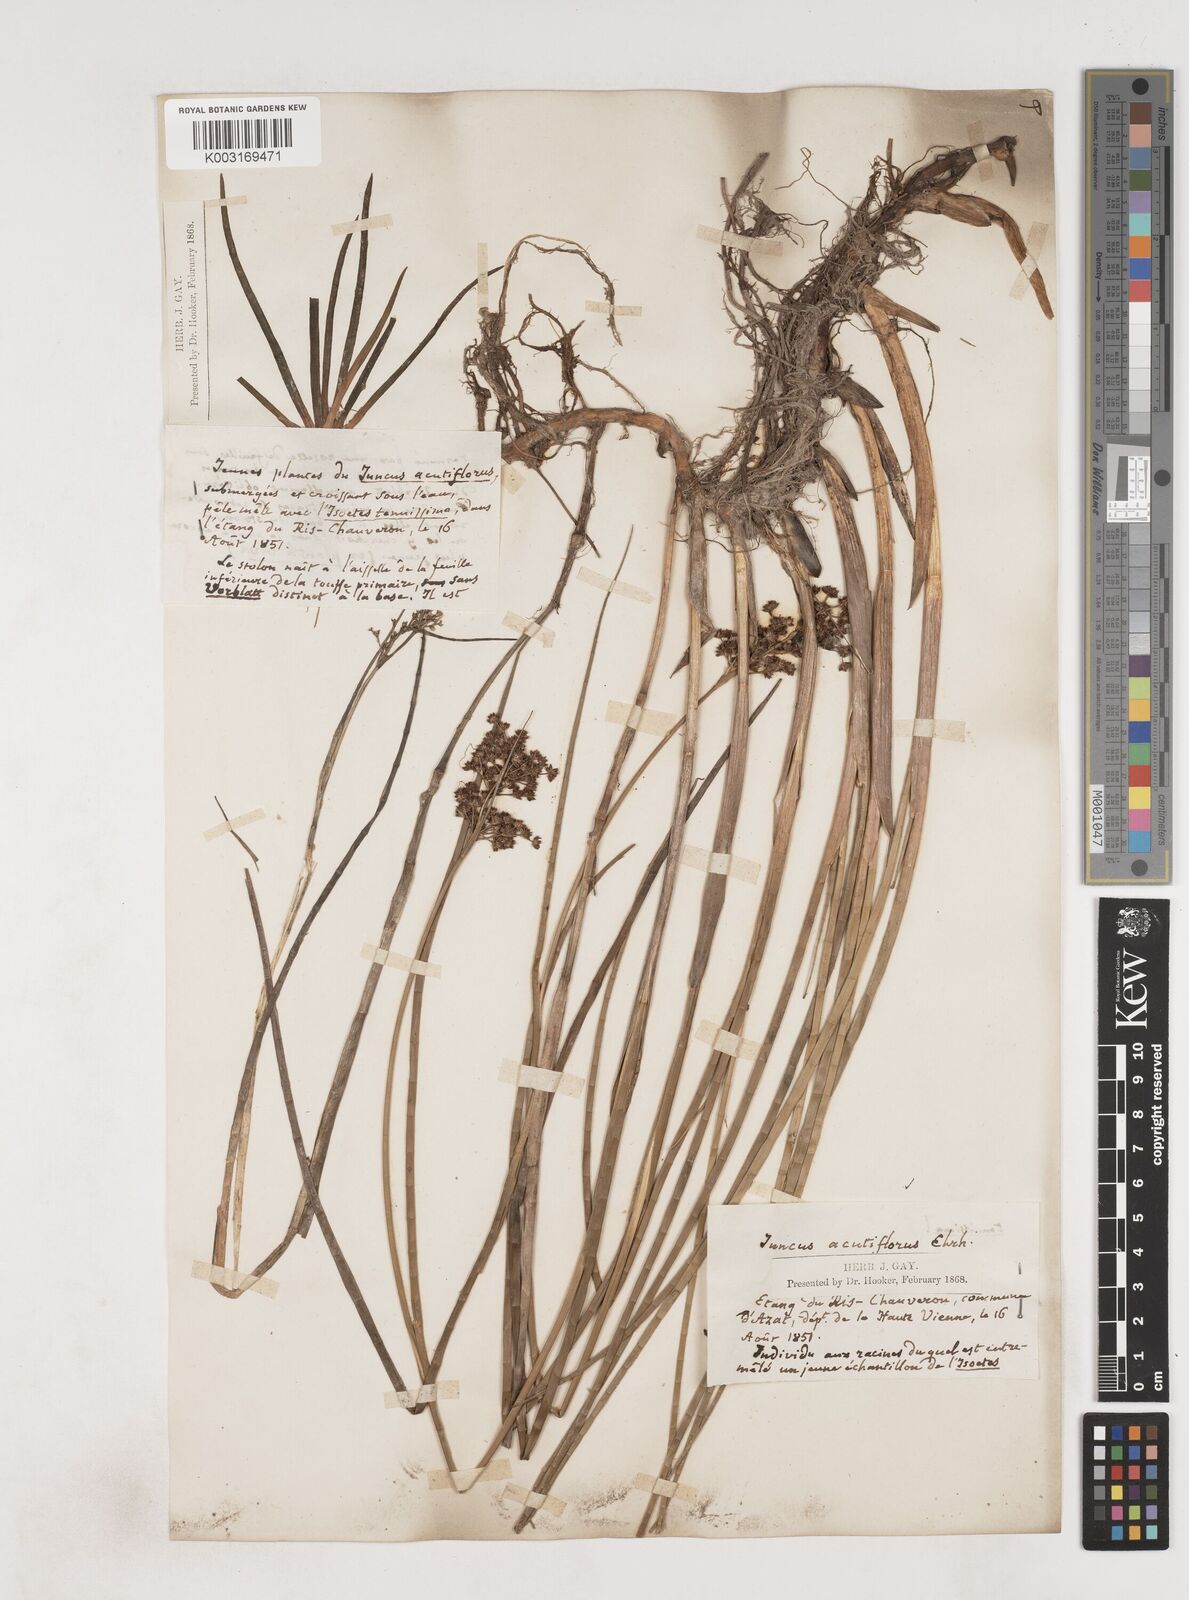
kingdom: Plantae
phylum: Tracheophyta
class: Liliopsida
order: Poales
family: Juncaceae
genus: Juncus
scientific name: Juncus acutiflorus
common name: Sharp-flowered rush
